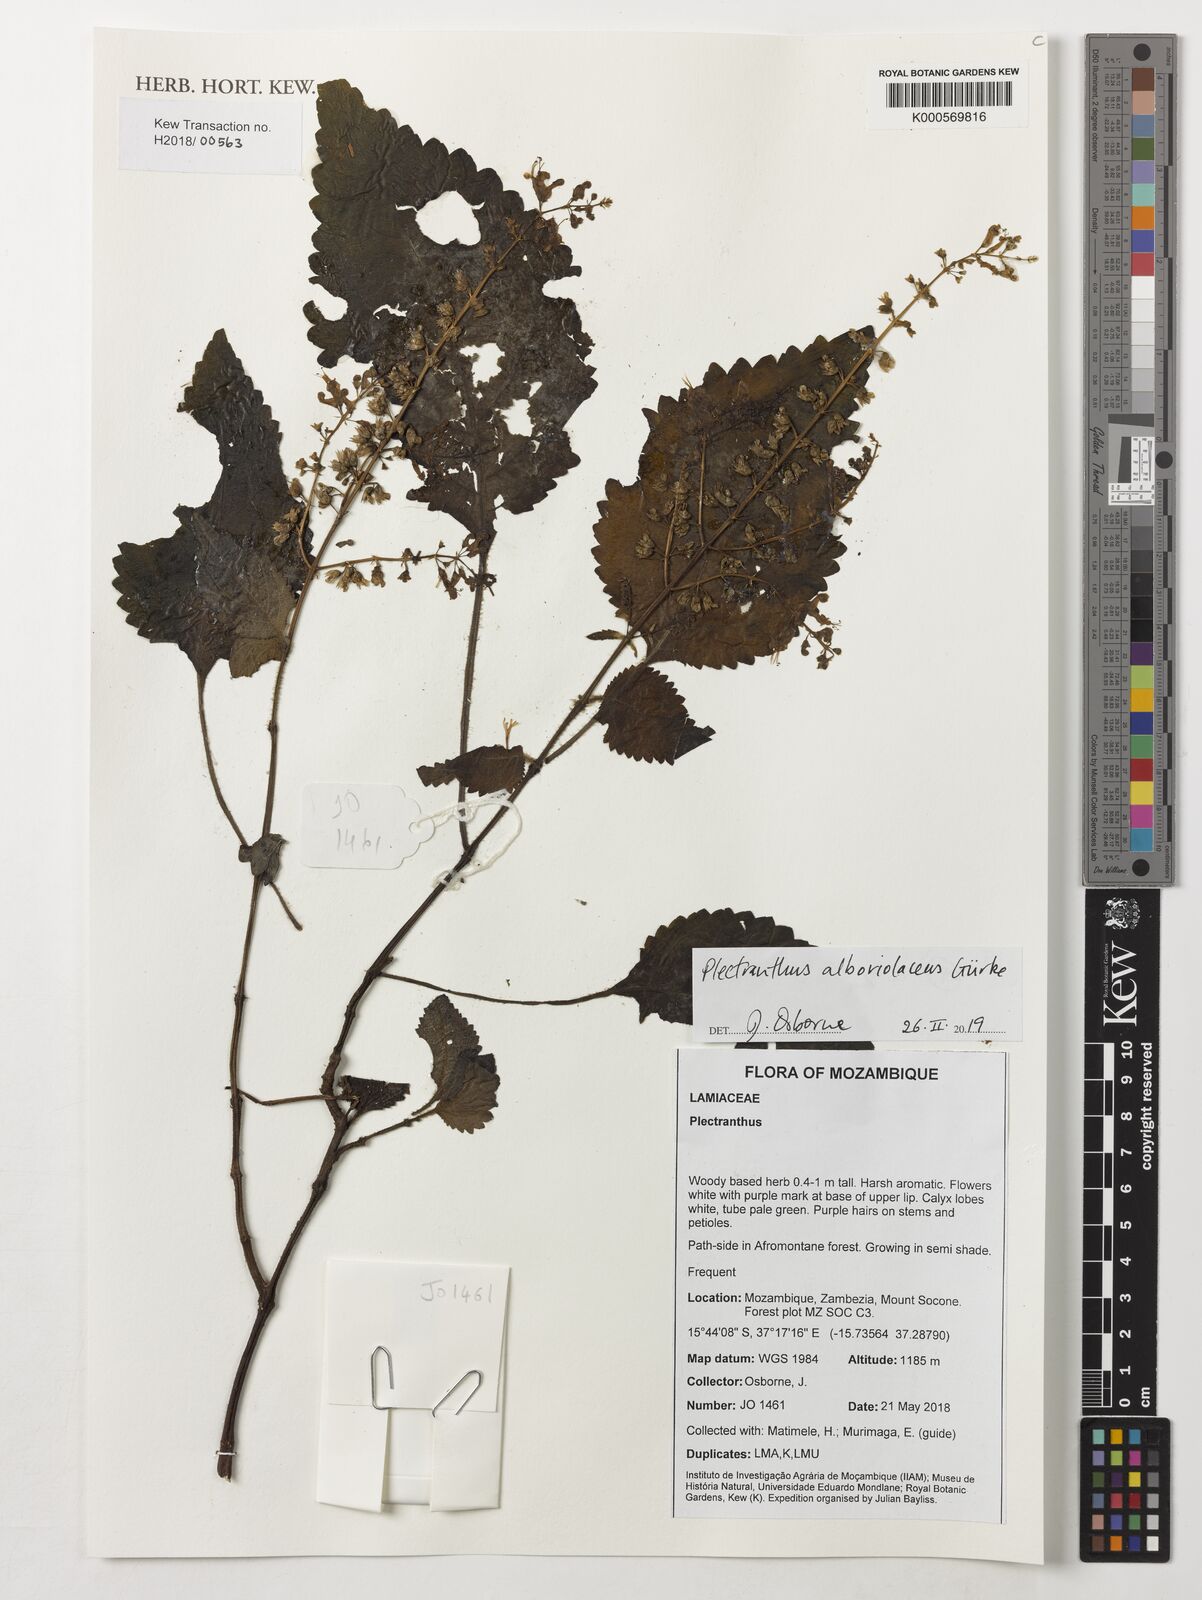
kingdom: Plantae
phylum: Tracheophyta
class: Magnoliopsida
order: Lamiales
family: Lamiaceae
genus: Plectranthus
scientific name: Plectranthus alboviolaceus
